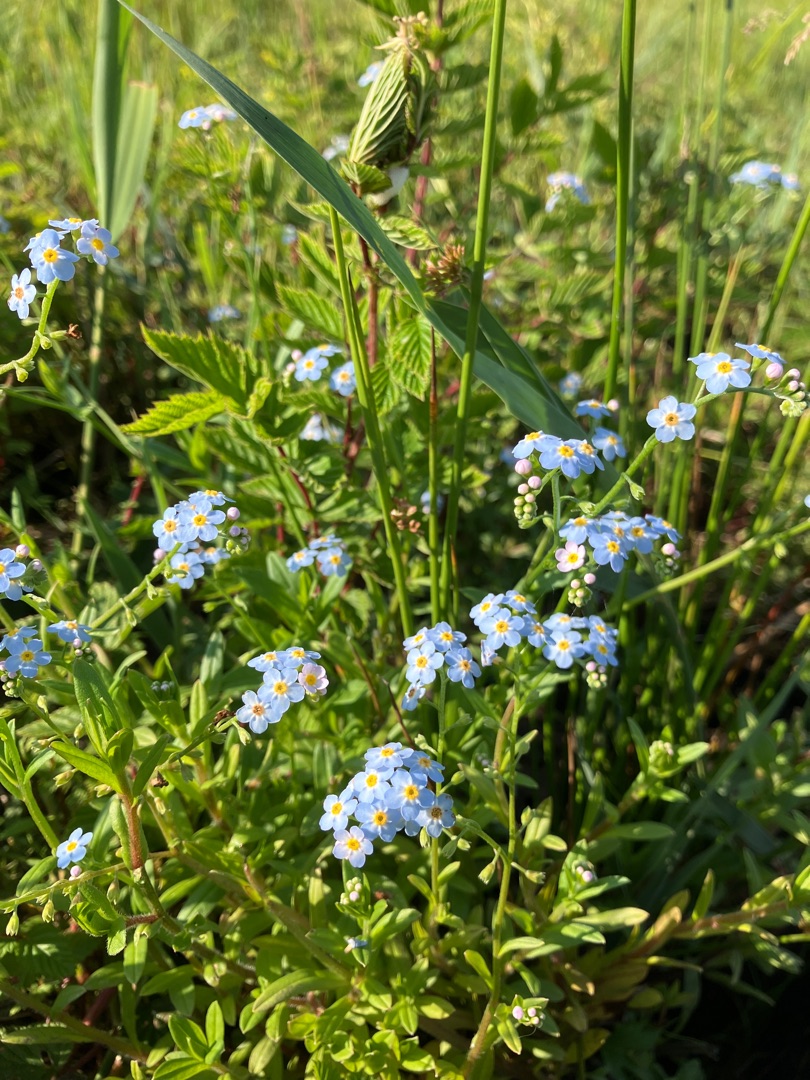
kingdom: Plantae
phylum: Tracheophyta
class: Magnoliopsida
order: Boraginales
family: Boraginaceae
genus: Myosotis
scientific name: Myosotis scorpioides
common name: Eng-forglemmigej
